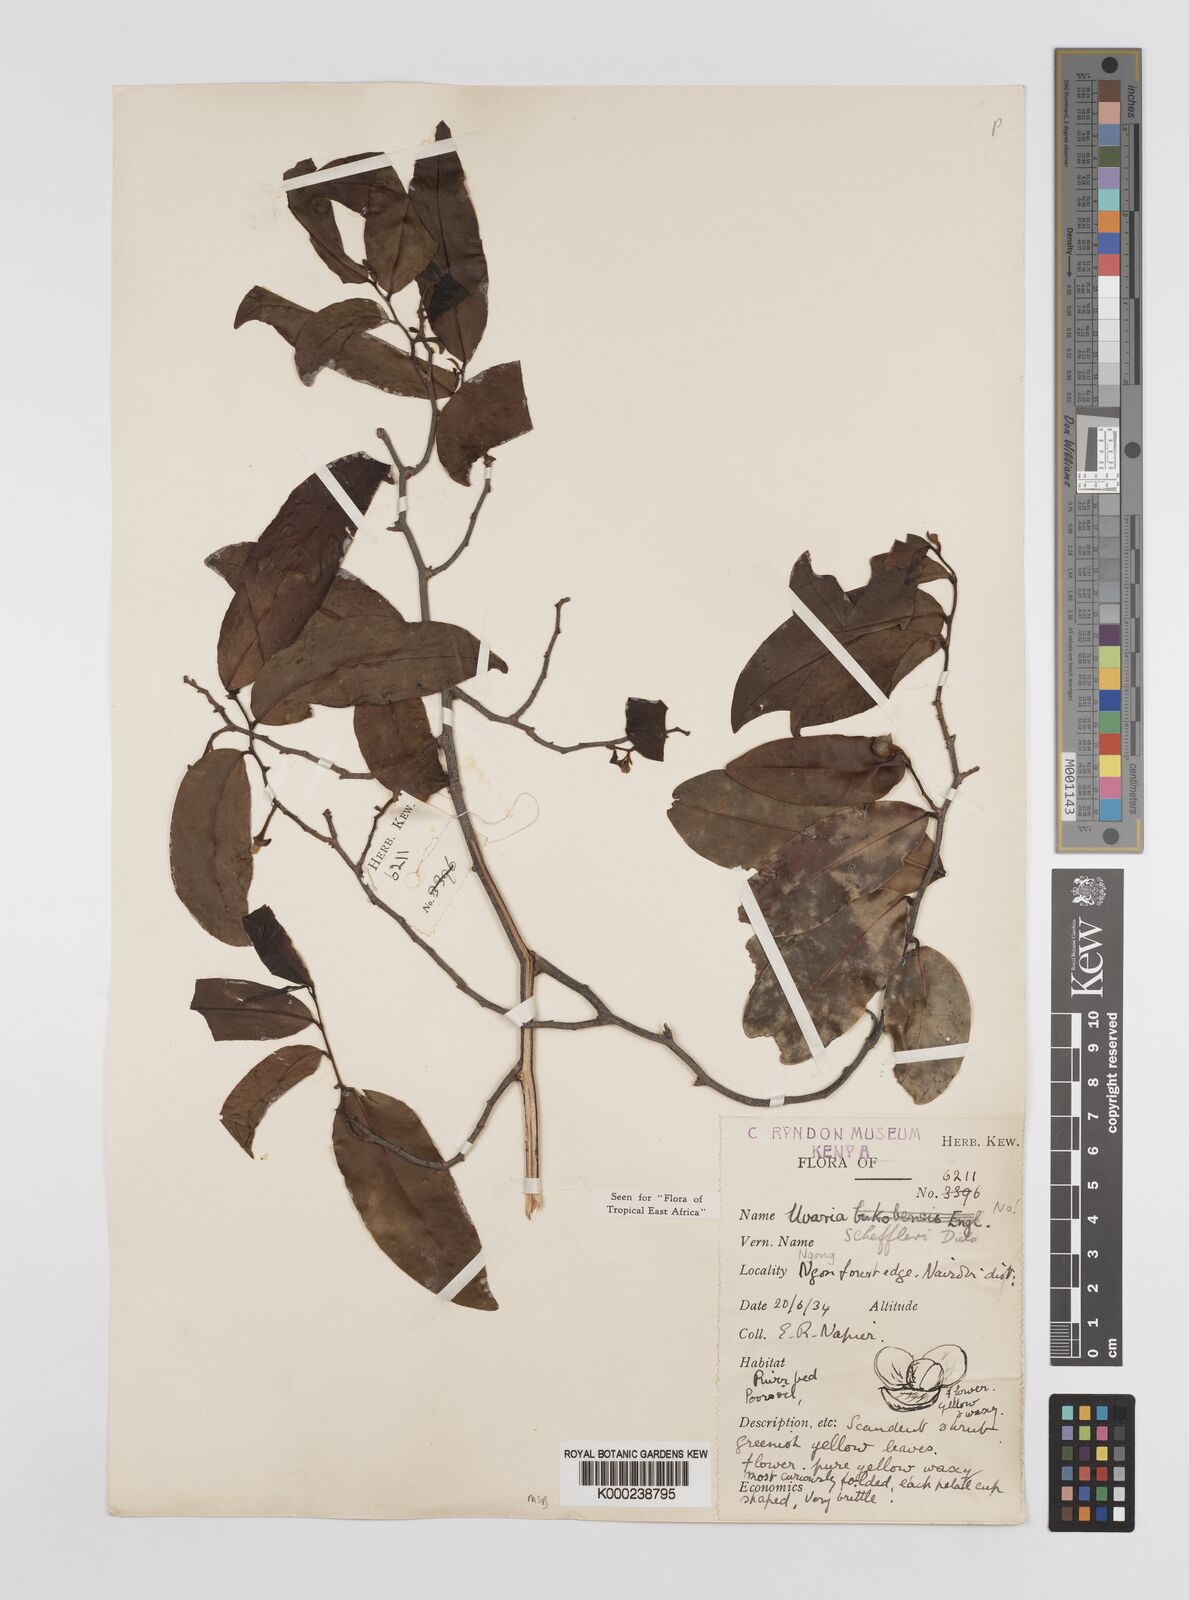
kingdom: Plantae
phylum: Tracheophyta
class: Magnoliopsida
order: Magnoliales
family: Annonaceae
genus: Uvaria
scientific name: Uvaria scheffleri
